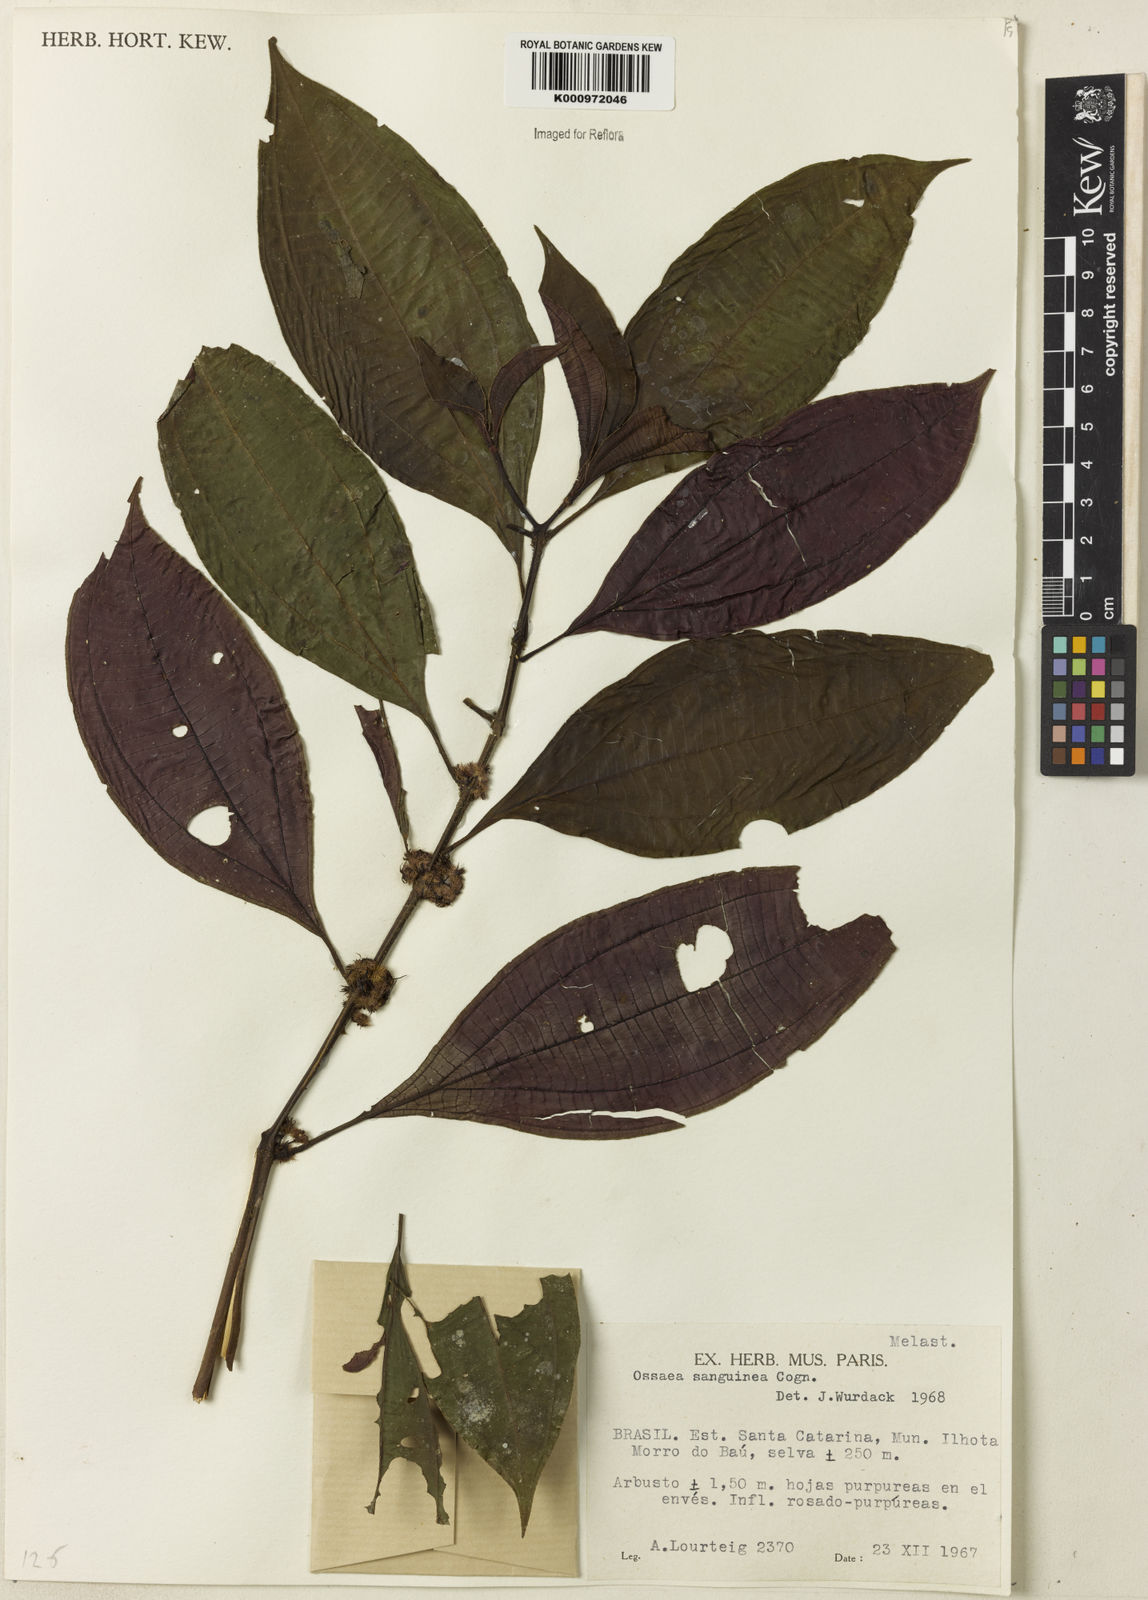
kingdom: Plantae
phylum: Tracheophyta
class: Magnoliopsida
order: Myrtales
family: Melastomataceae
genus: Miconia
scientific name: Miconia secunsanguinea
